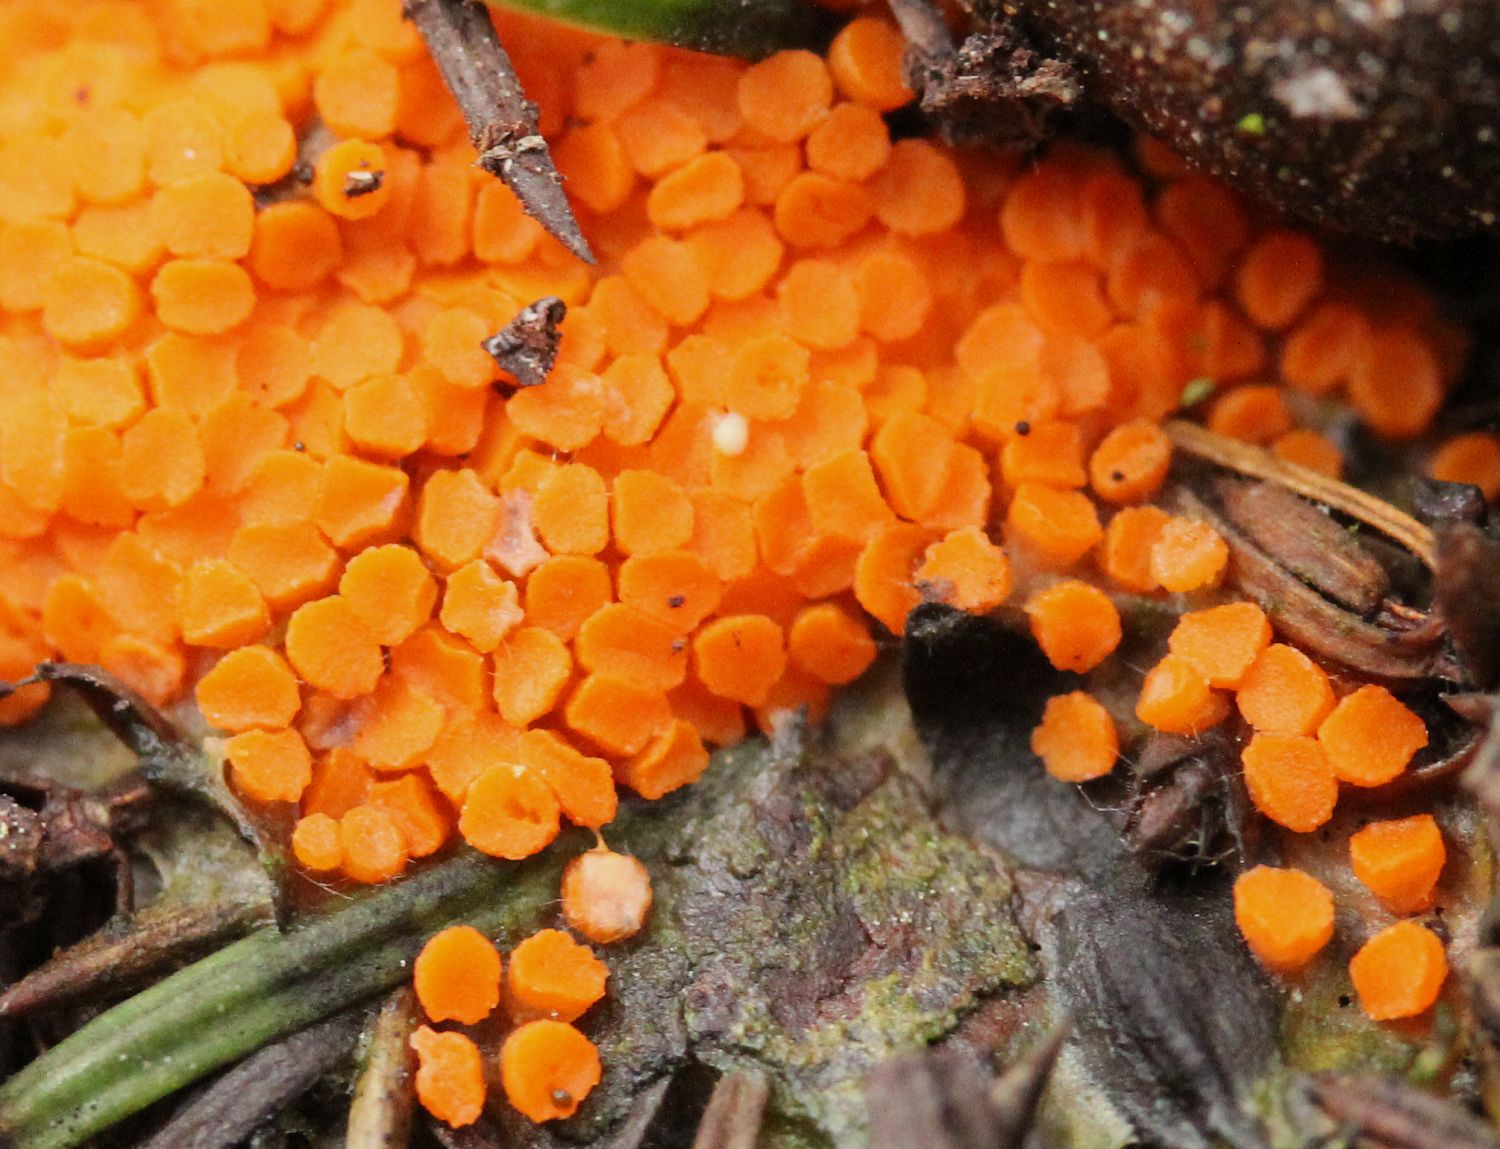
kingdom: Fungi
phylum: Ascomycota
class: Pezizomycetes
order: Pezizales
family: Pyronemataceae
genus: Byssonectria
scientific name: Byssonectria terrestris
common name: hjortebæger
